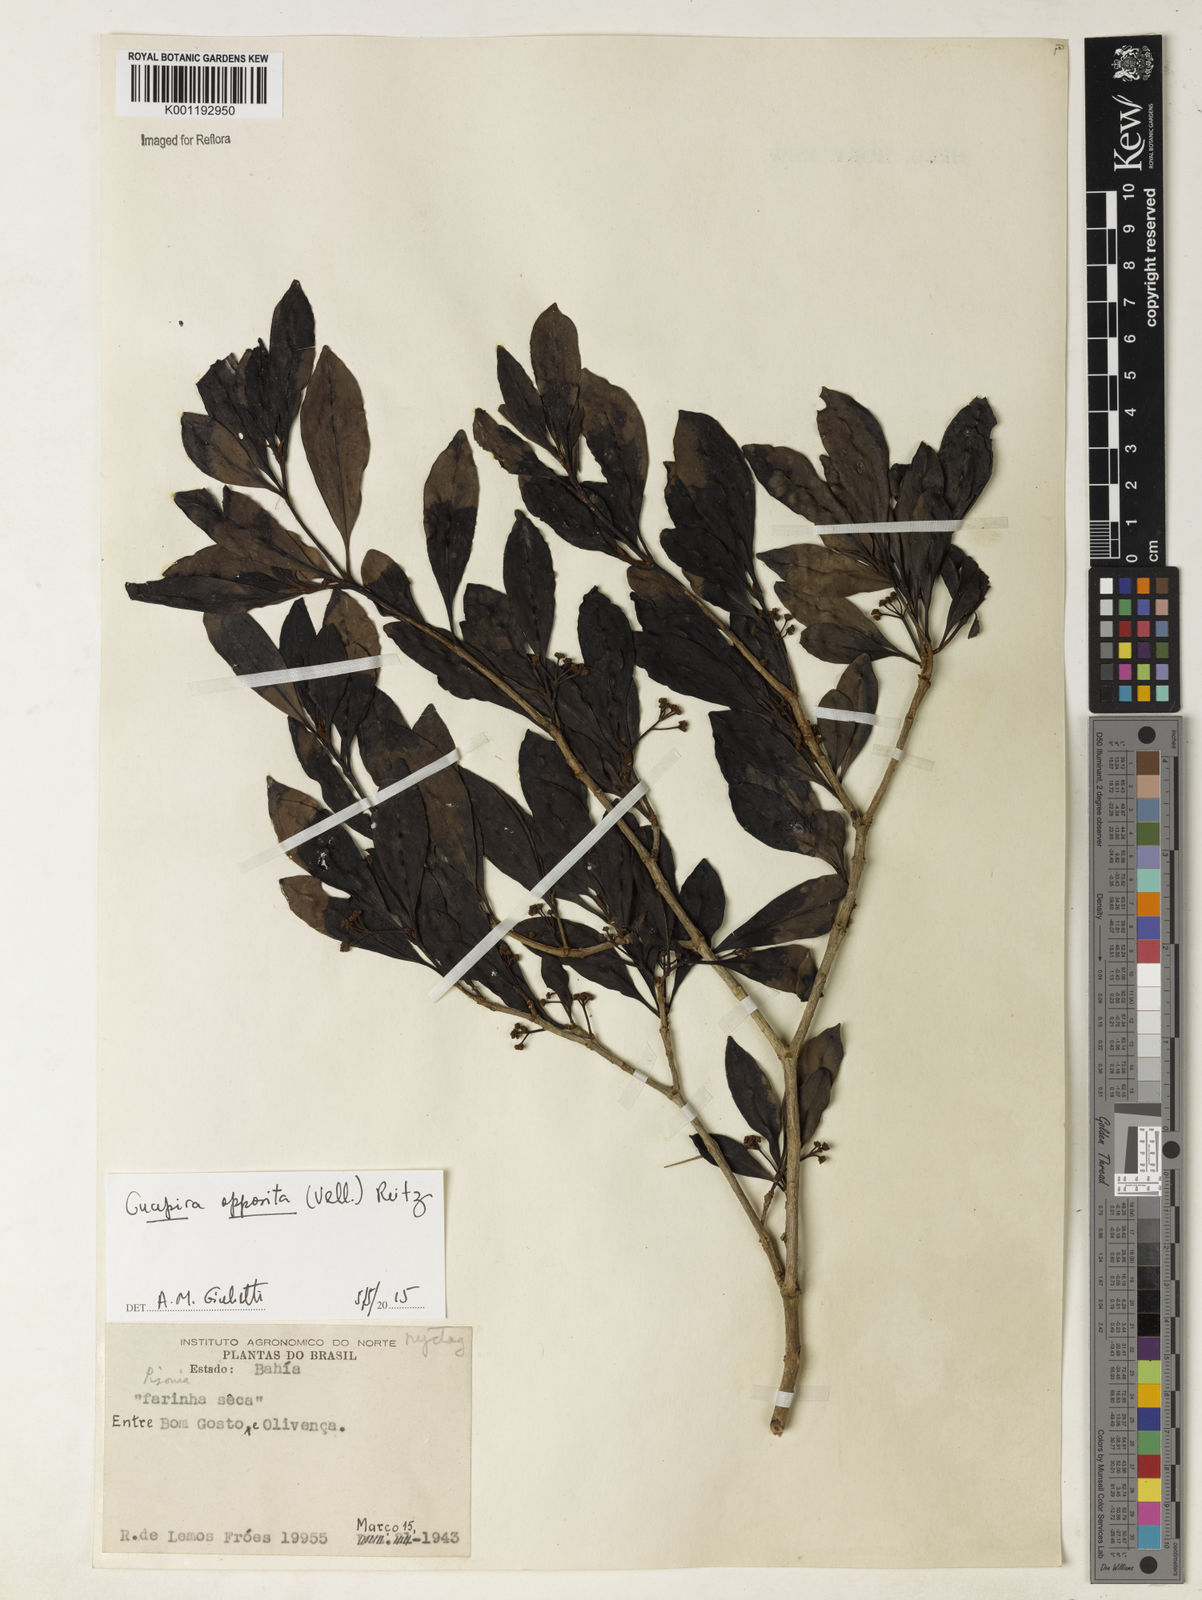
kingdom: Plantae
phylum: Tracheophyta
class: Magnoliopsida
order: Caryophyllales
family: Nyctaginaceae
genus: Guapira
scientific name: Guapira opposita
